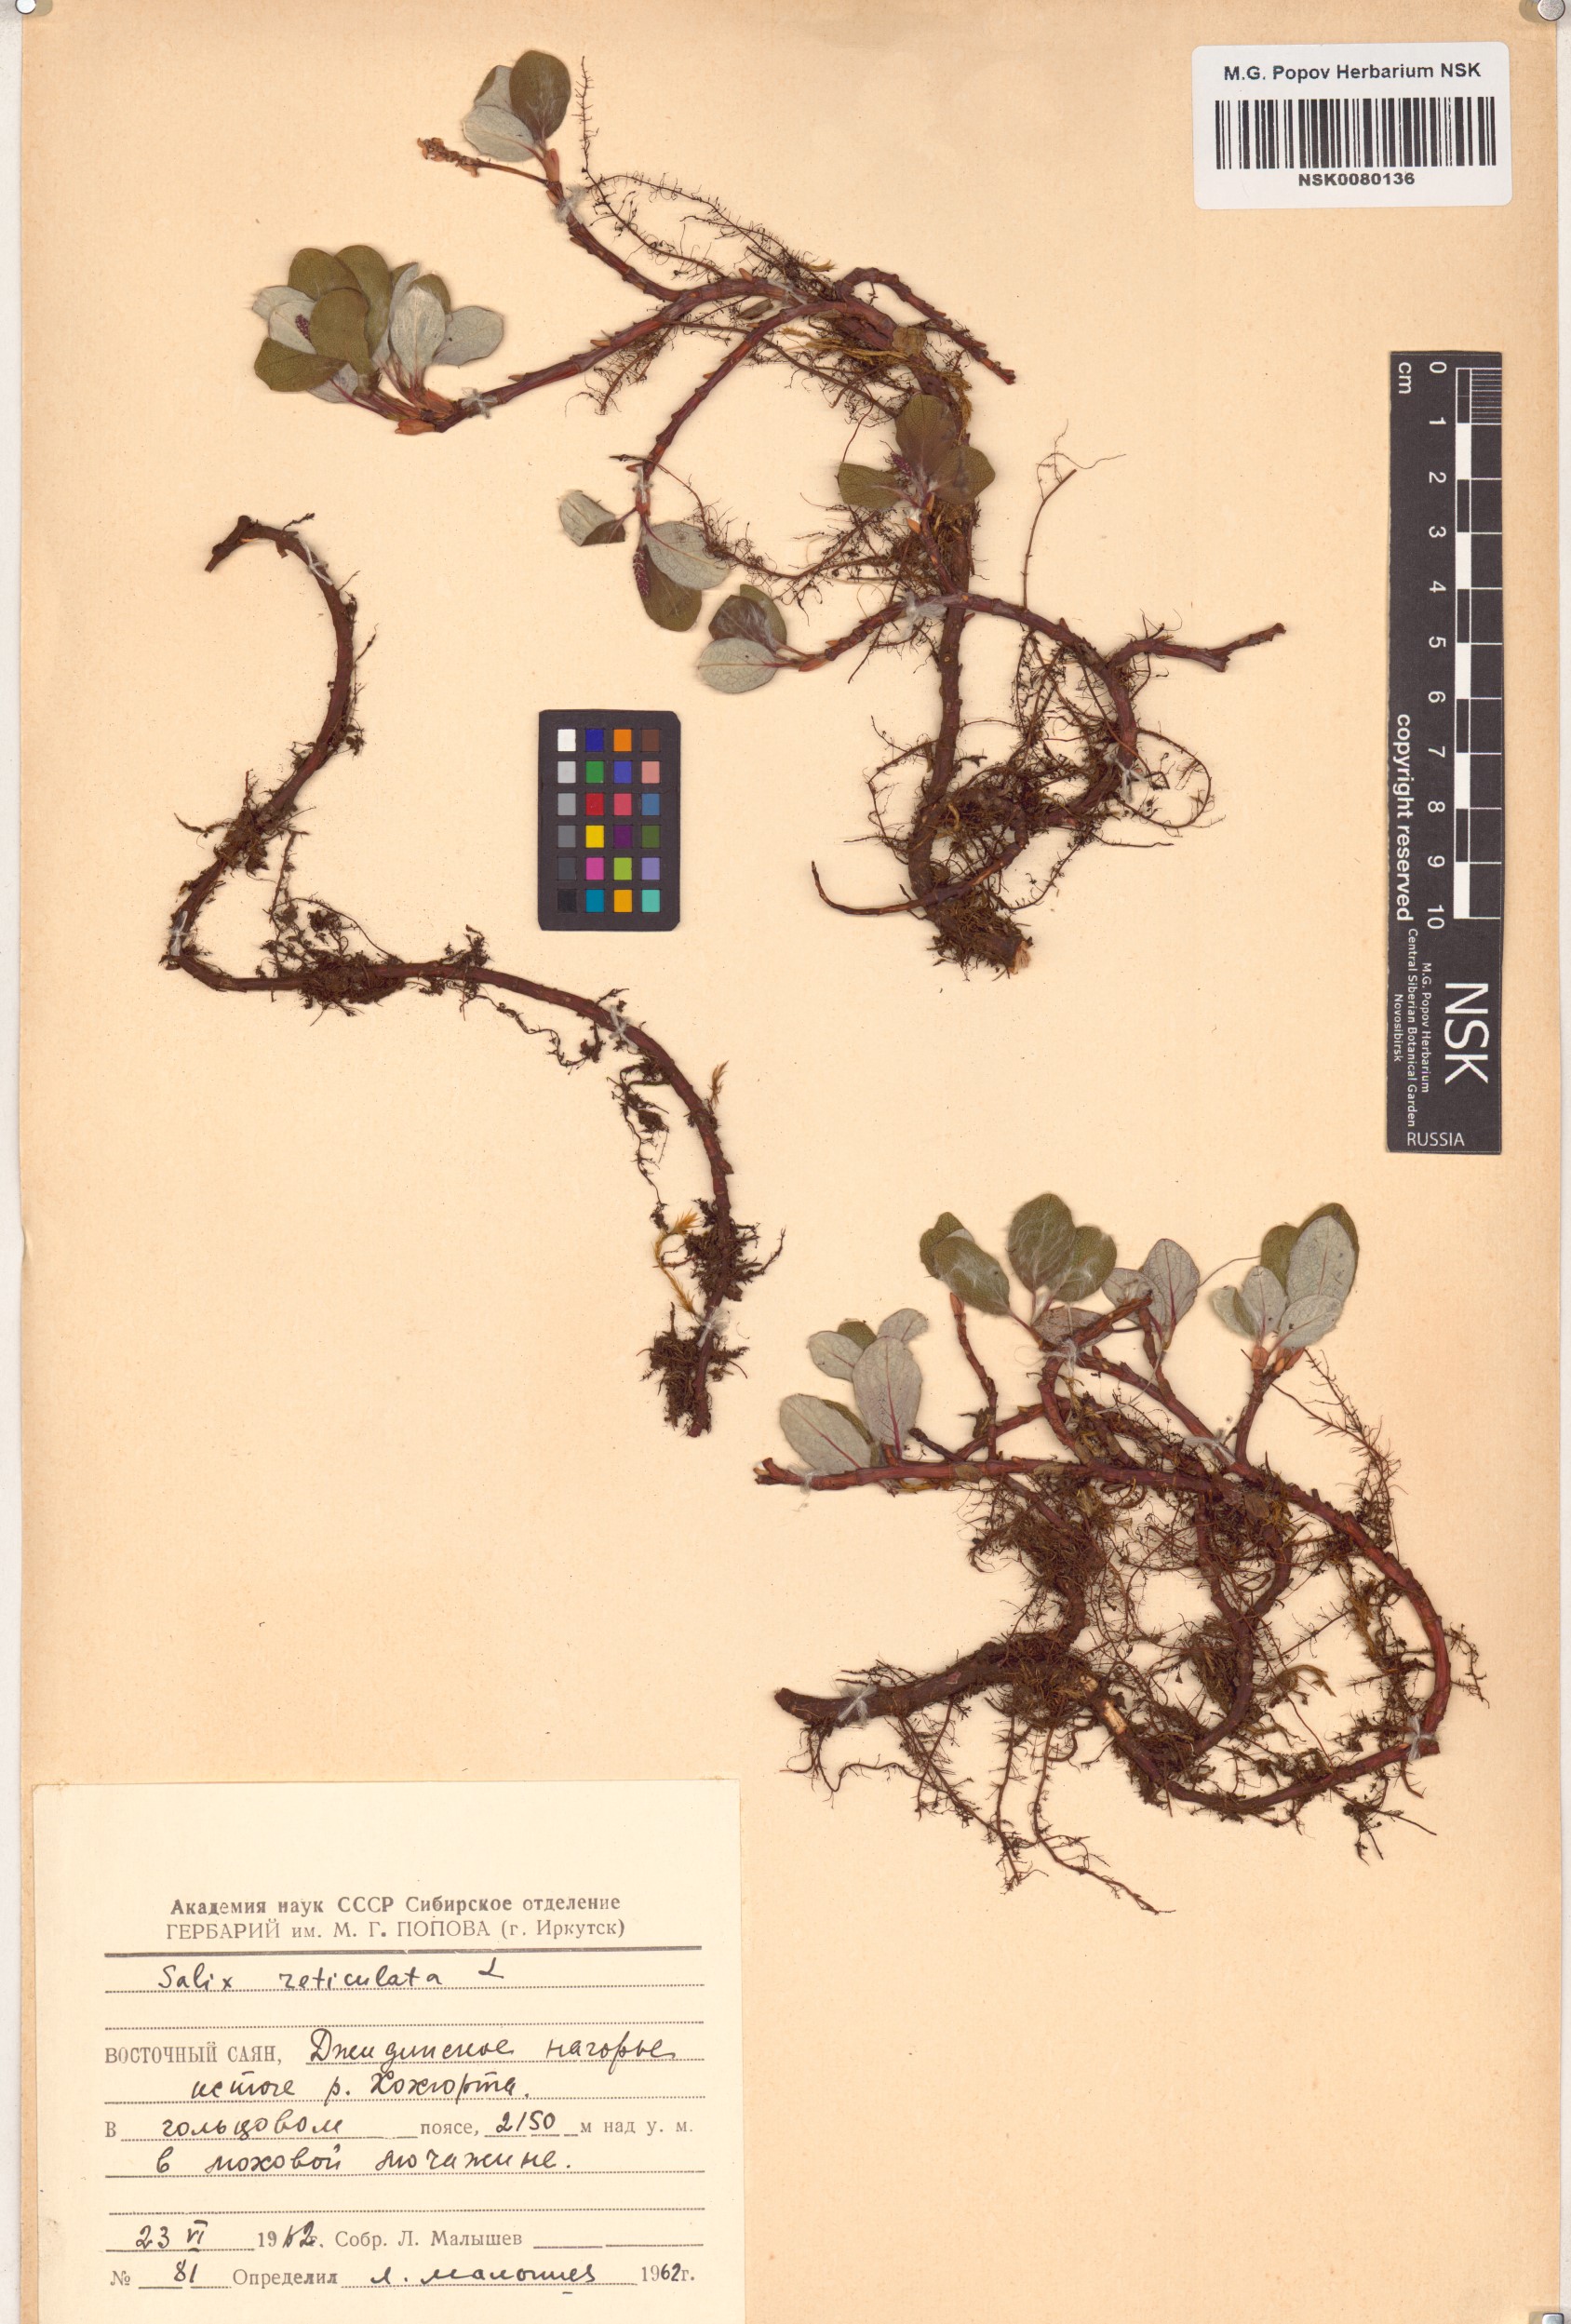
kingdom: Plantae
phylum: Tracheophyta
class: Magnoliopsida
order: Malpighiales
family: Salicaceae
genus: Salix
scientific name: Salix reticulata
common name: Net-leaved willow
